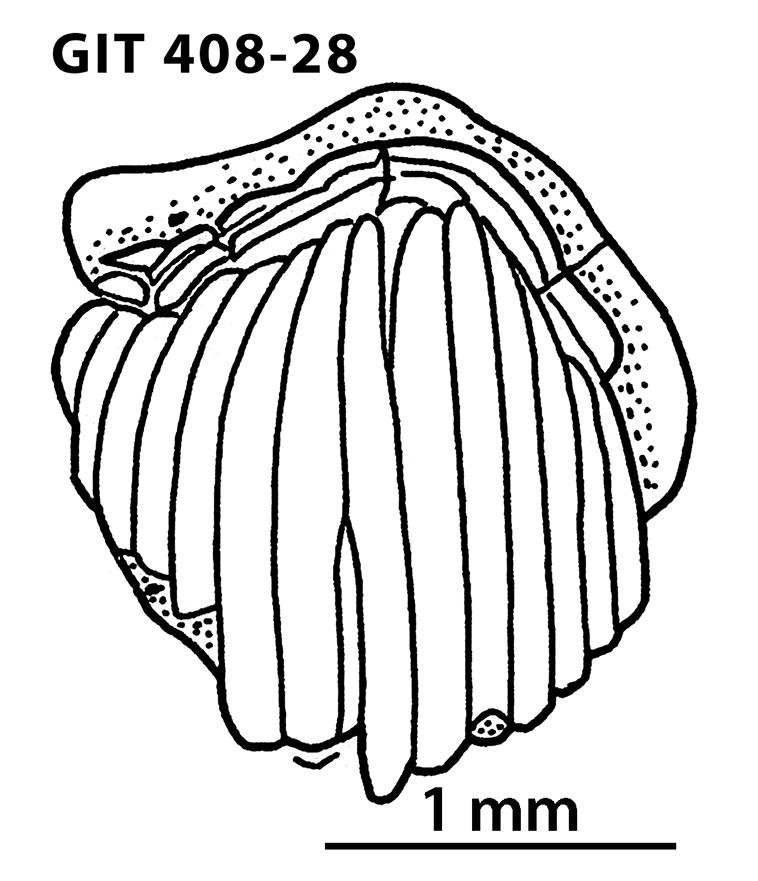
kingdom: Animalia
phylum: Chordata
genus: Archegonaspis
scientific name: Archegonaspis
